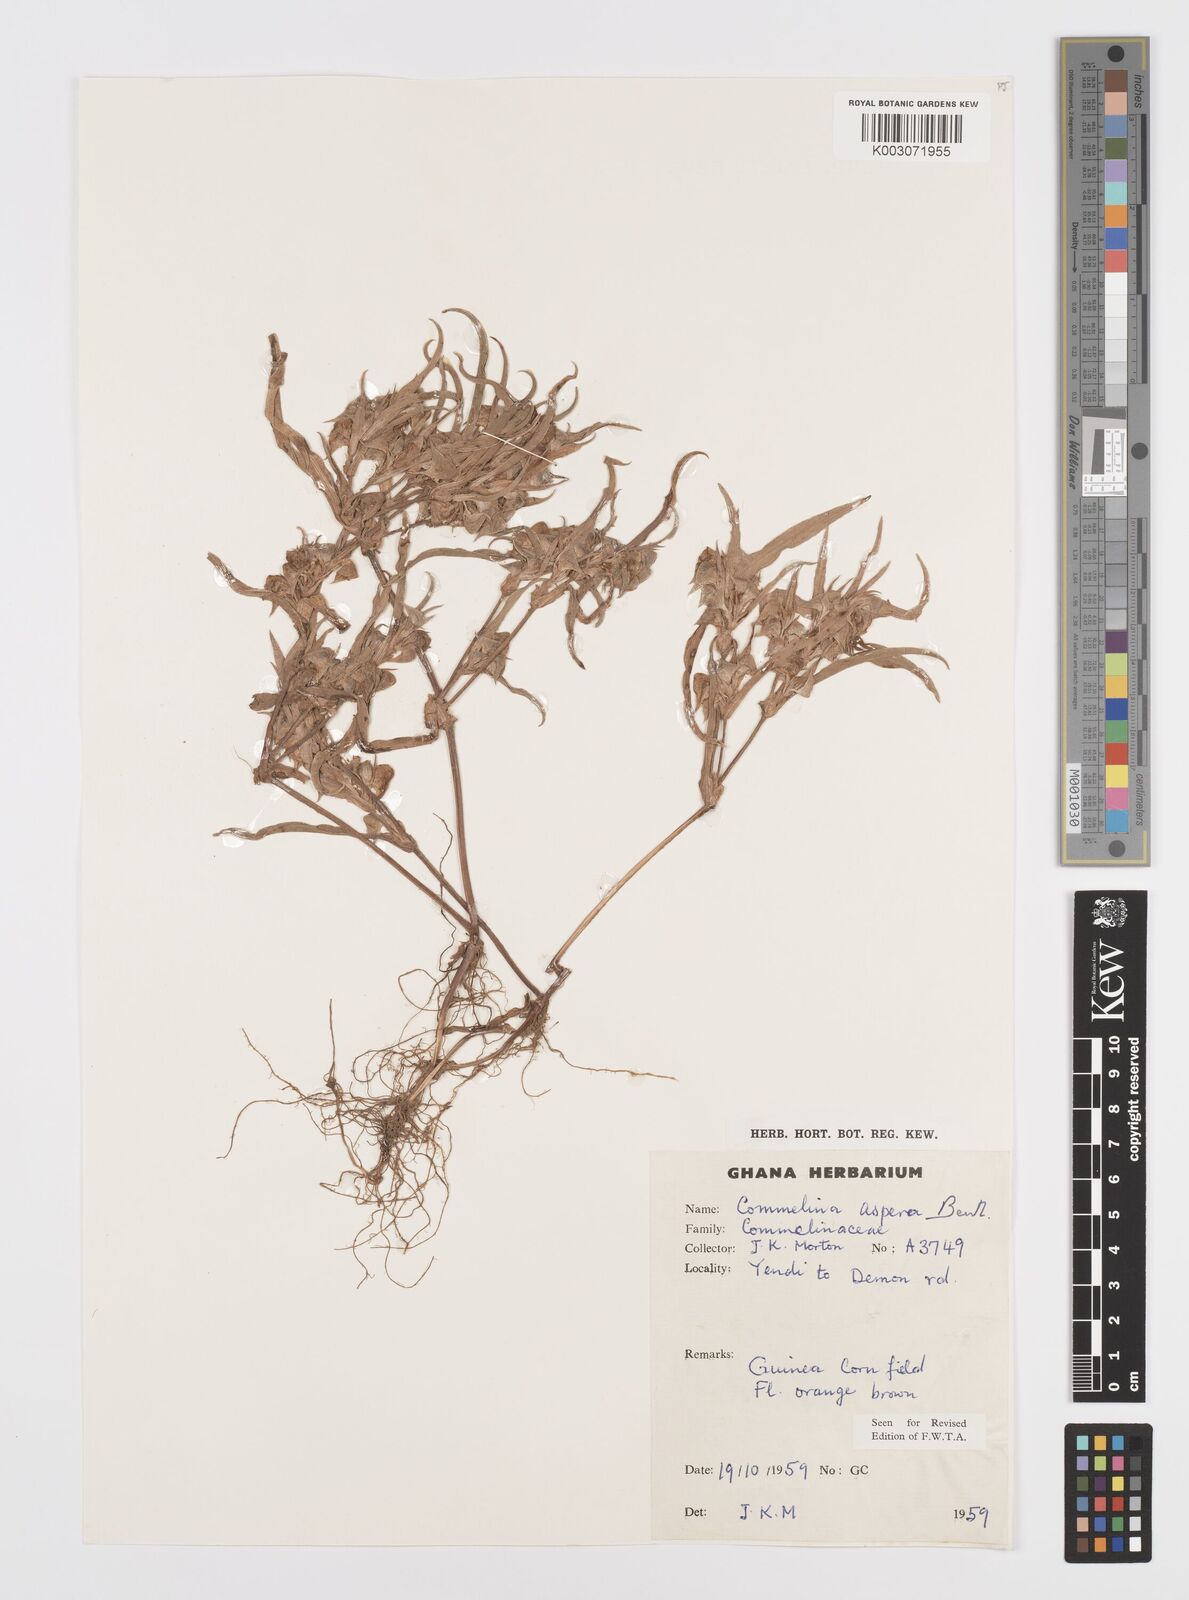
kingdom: Plantae
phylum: Tracheophyta
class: Liliopsida
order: Commelinales
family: Commelinaceae
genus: Commelina
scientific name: Commelina aspera
